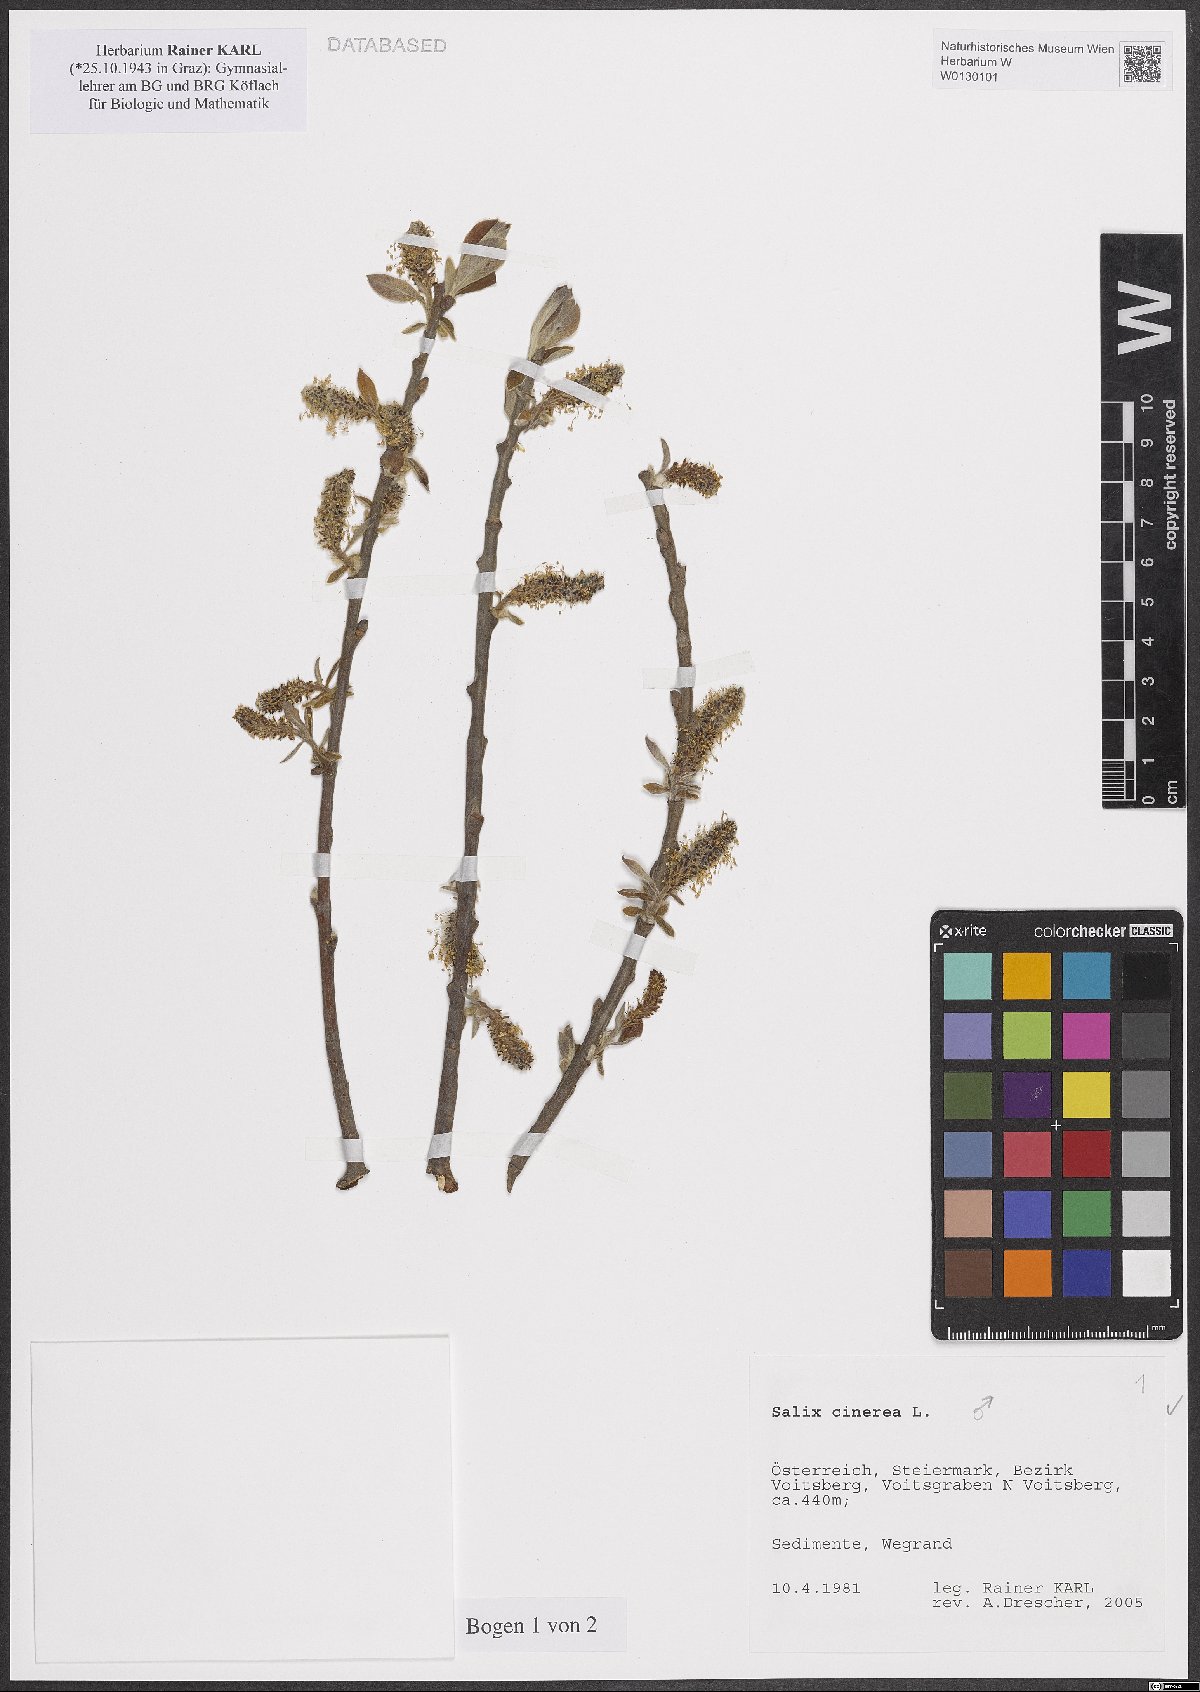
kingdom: Plantae
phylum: Tracheophyta
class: Magnoliopsida
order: Malpighiales
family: Salicaceae
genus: Salix
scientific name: Salix cinerea
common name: Common sallow
